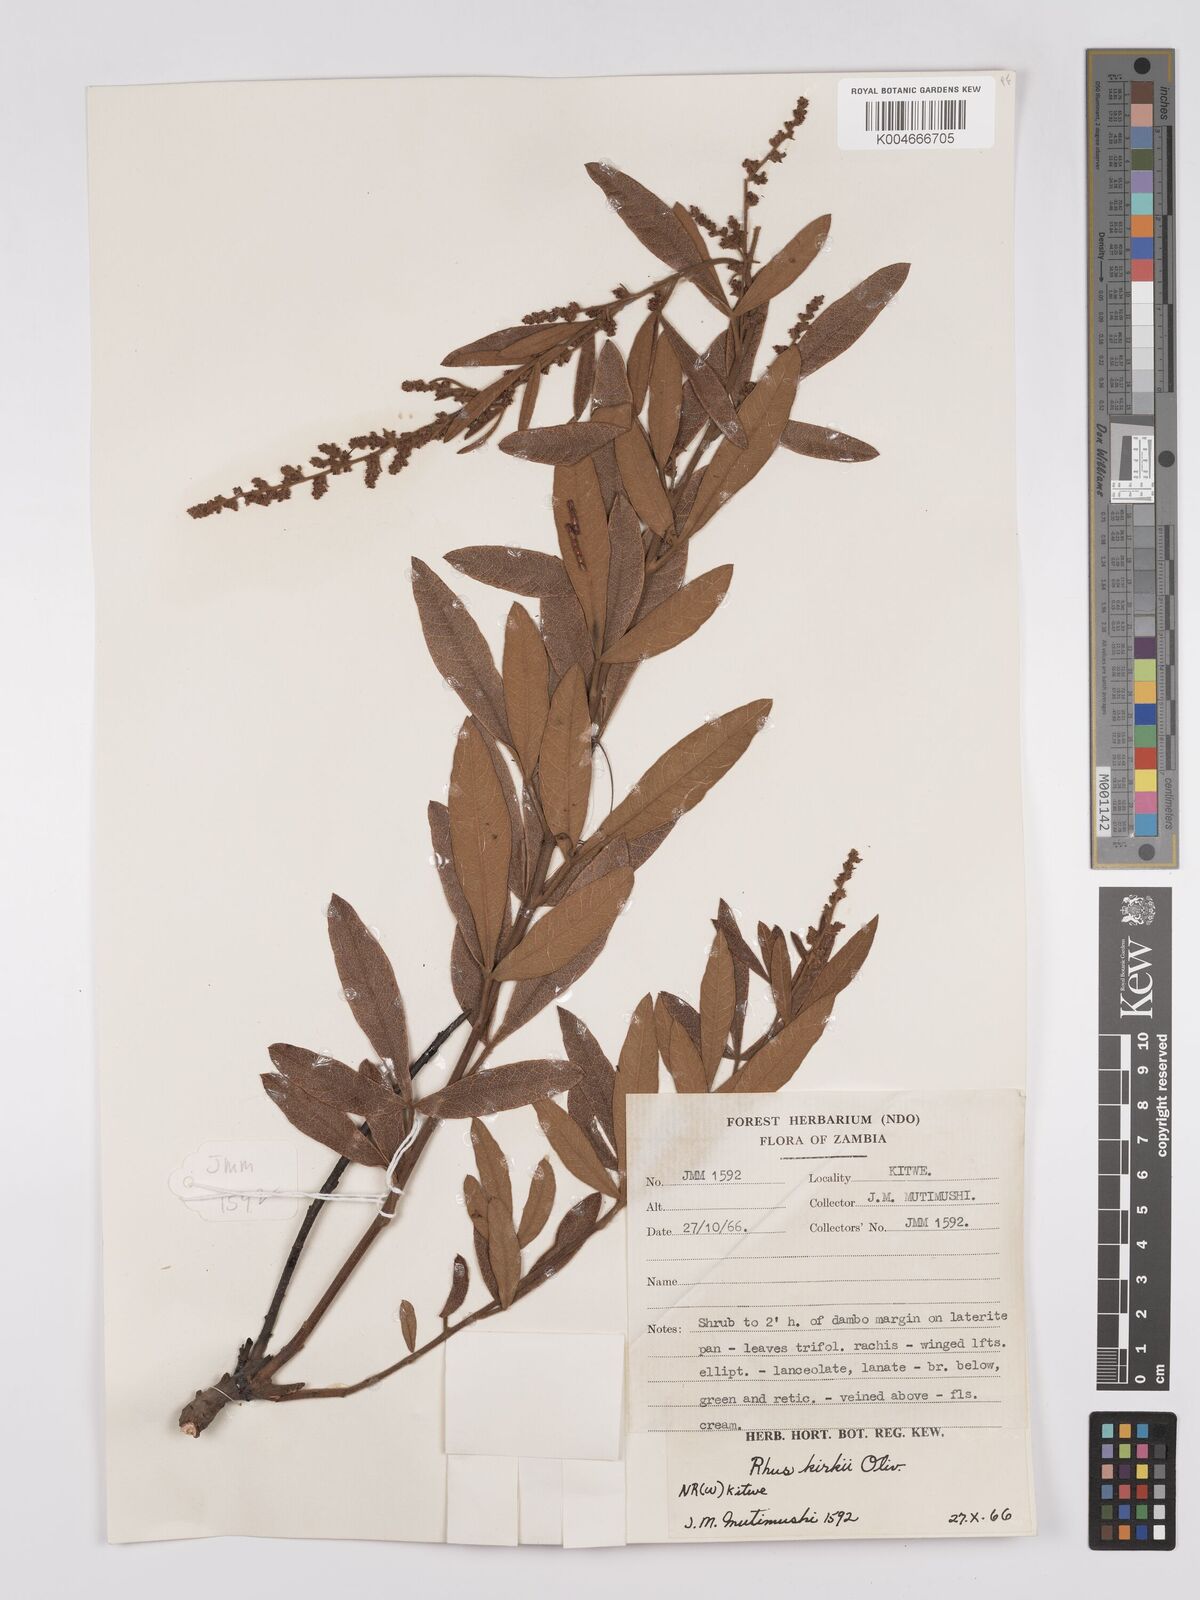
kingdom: Plantae
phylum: Tracheophyta
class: Magnoliopsida
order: Sapindales
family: Anacardiaceae
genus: Searsia
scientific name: Searsia kirkii
